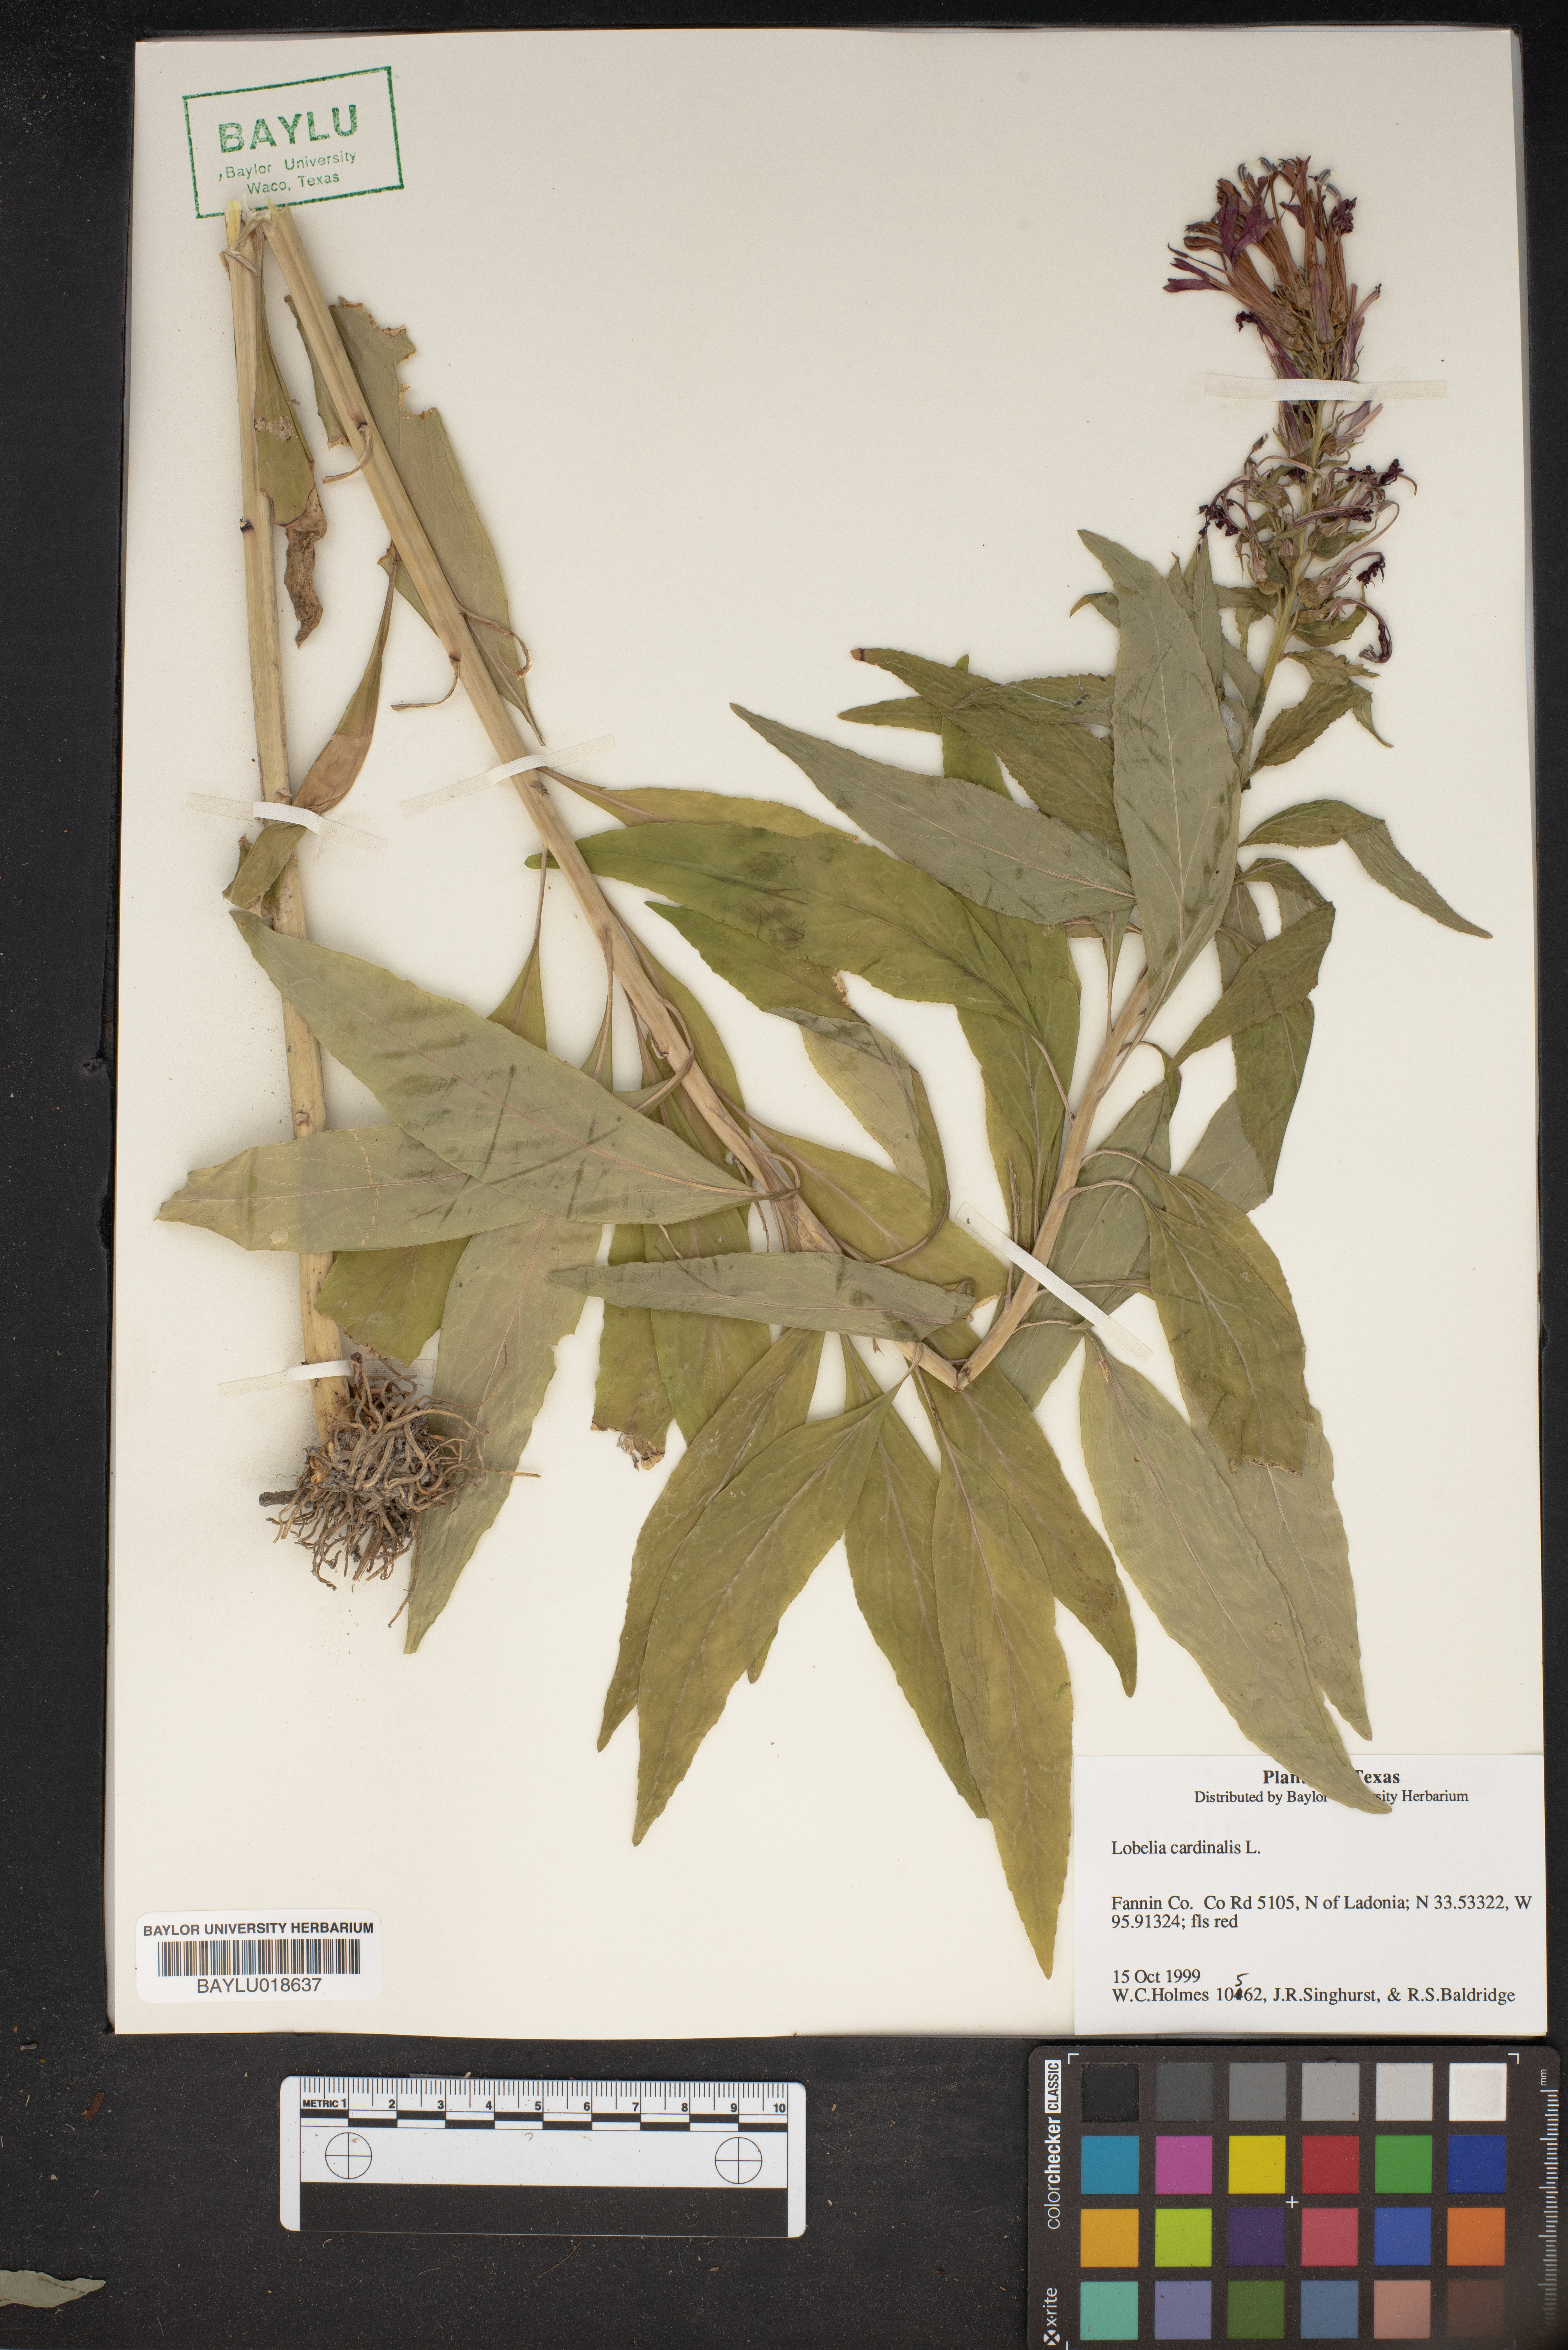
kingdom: Plantae
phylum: Tracheophyta
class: Magnoliopsida
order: Asterales
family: Campanulaceae
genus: Lobelia
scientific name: Lobelia cardinalis
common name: Cardinal flower
